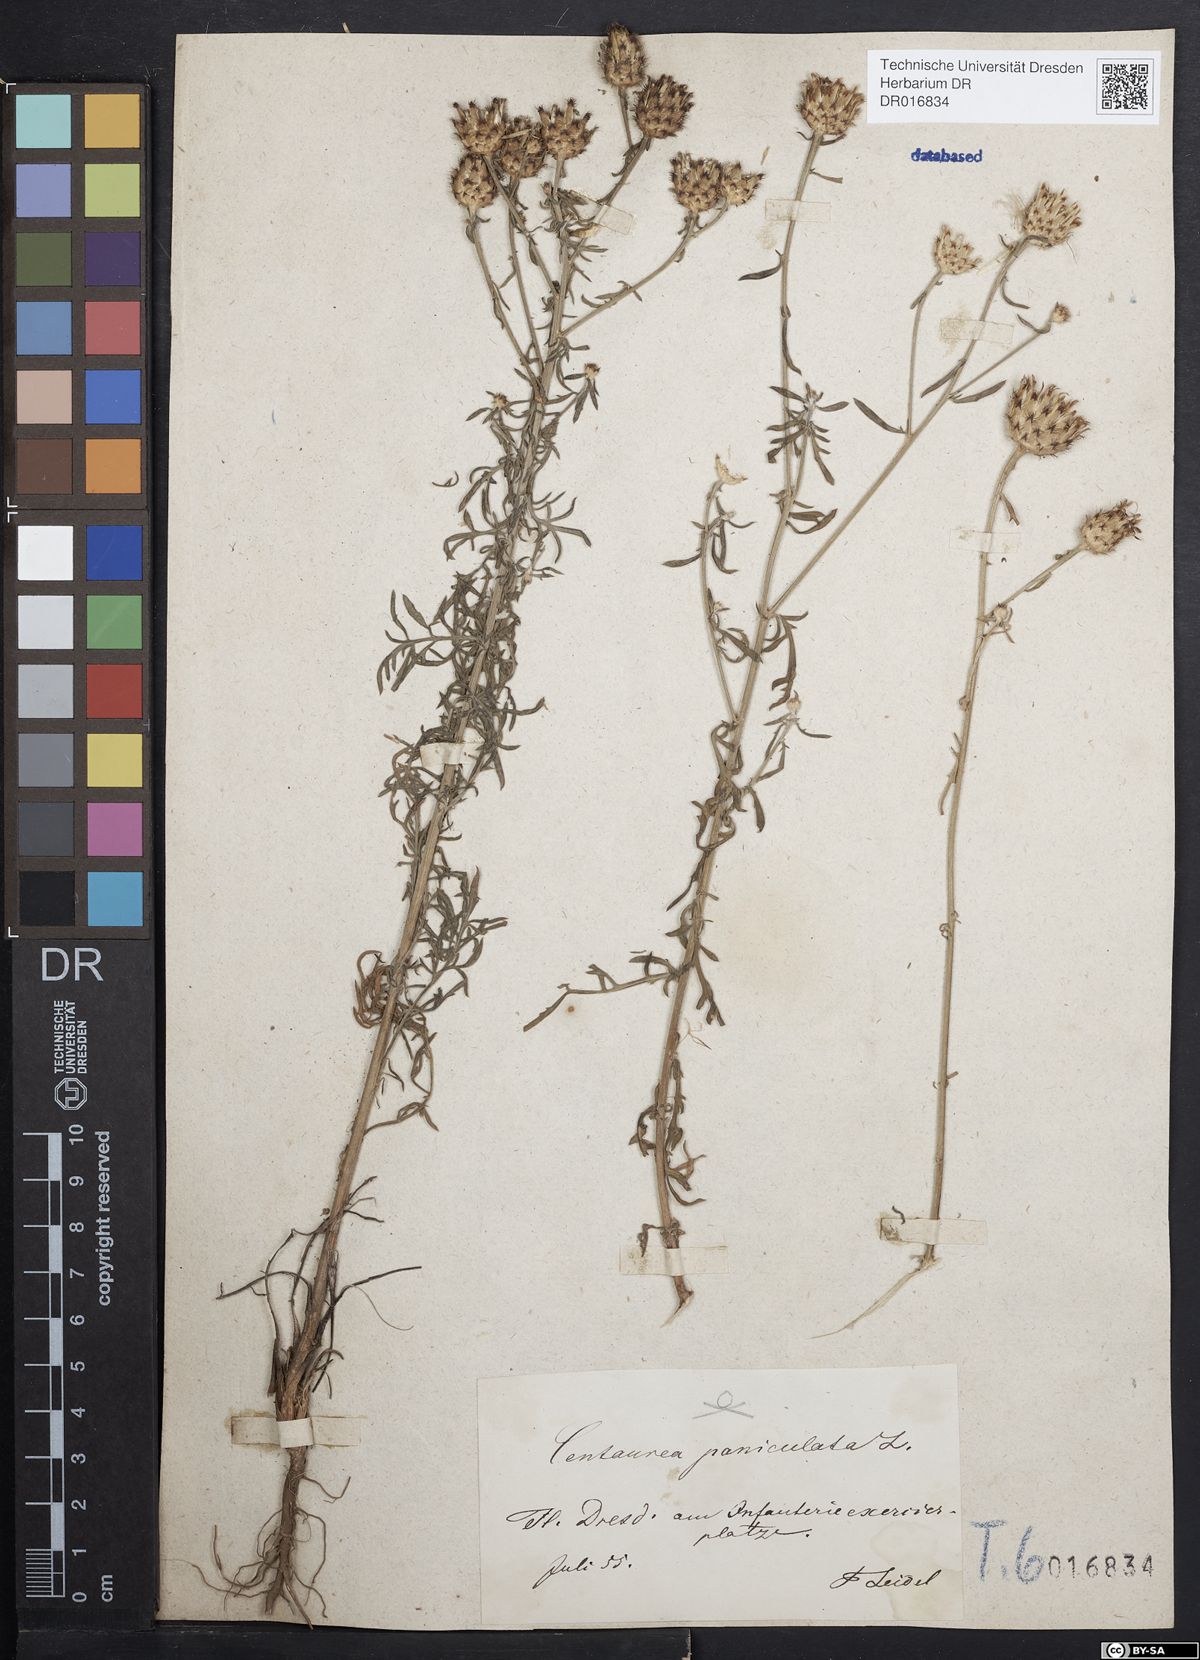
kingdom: Plantae
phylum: Tracheophyta
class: Magnoliopsida
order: Asterales
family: Asteraceae
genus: Centaurea
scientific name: Centaurea stoebe
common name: Spotted knapweed
